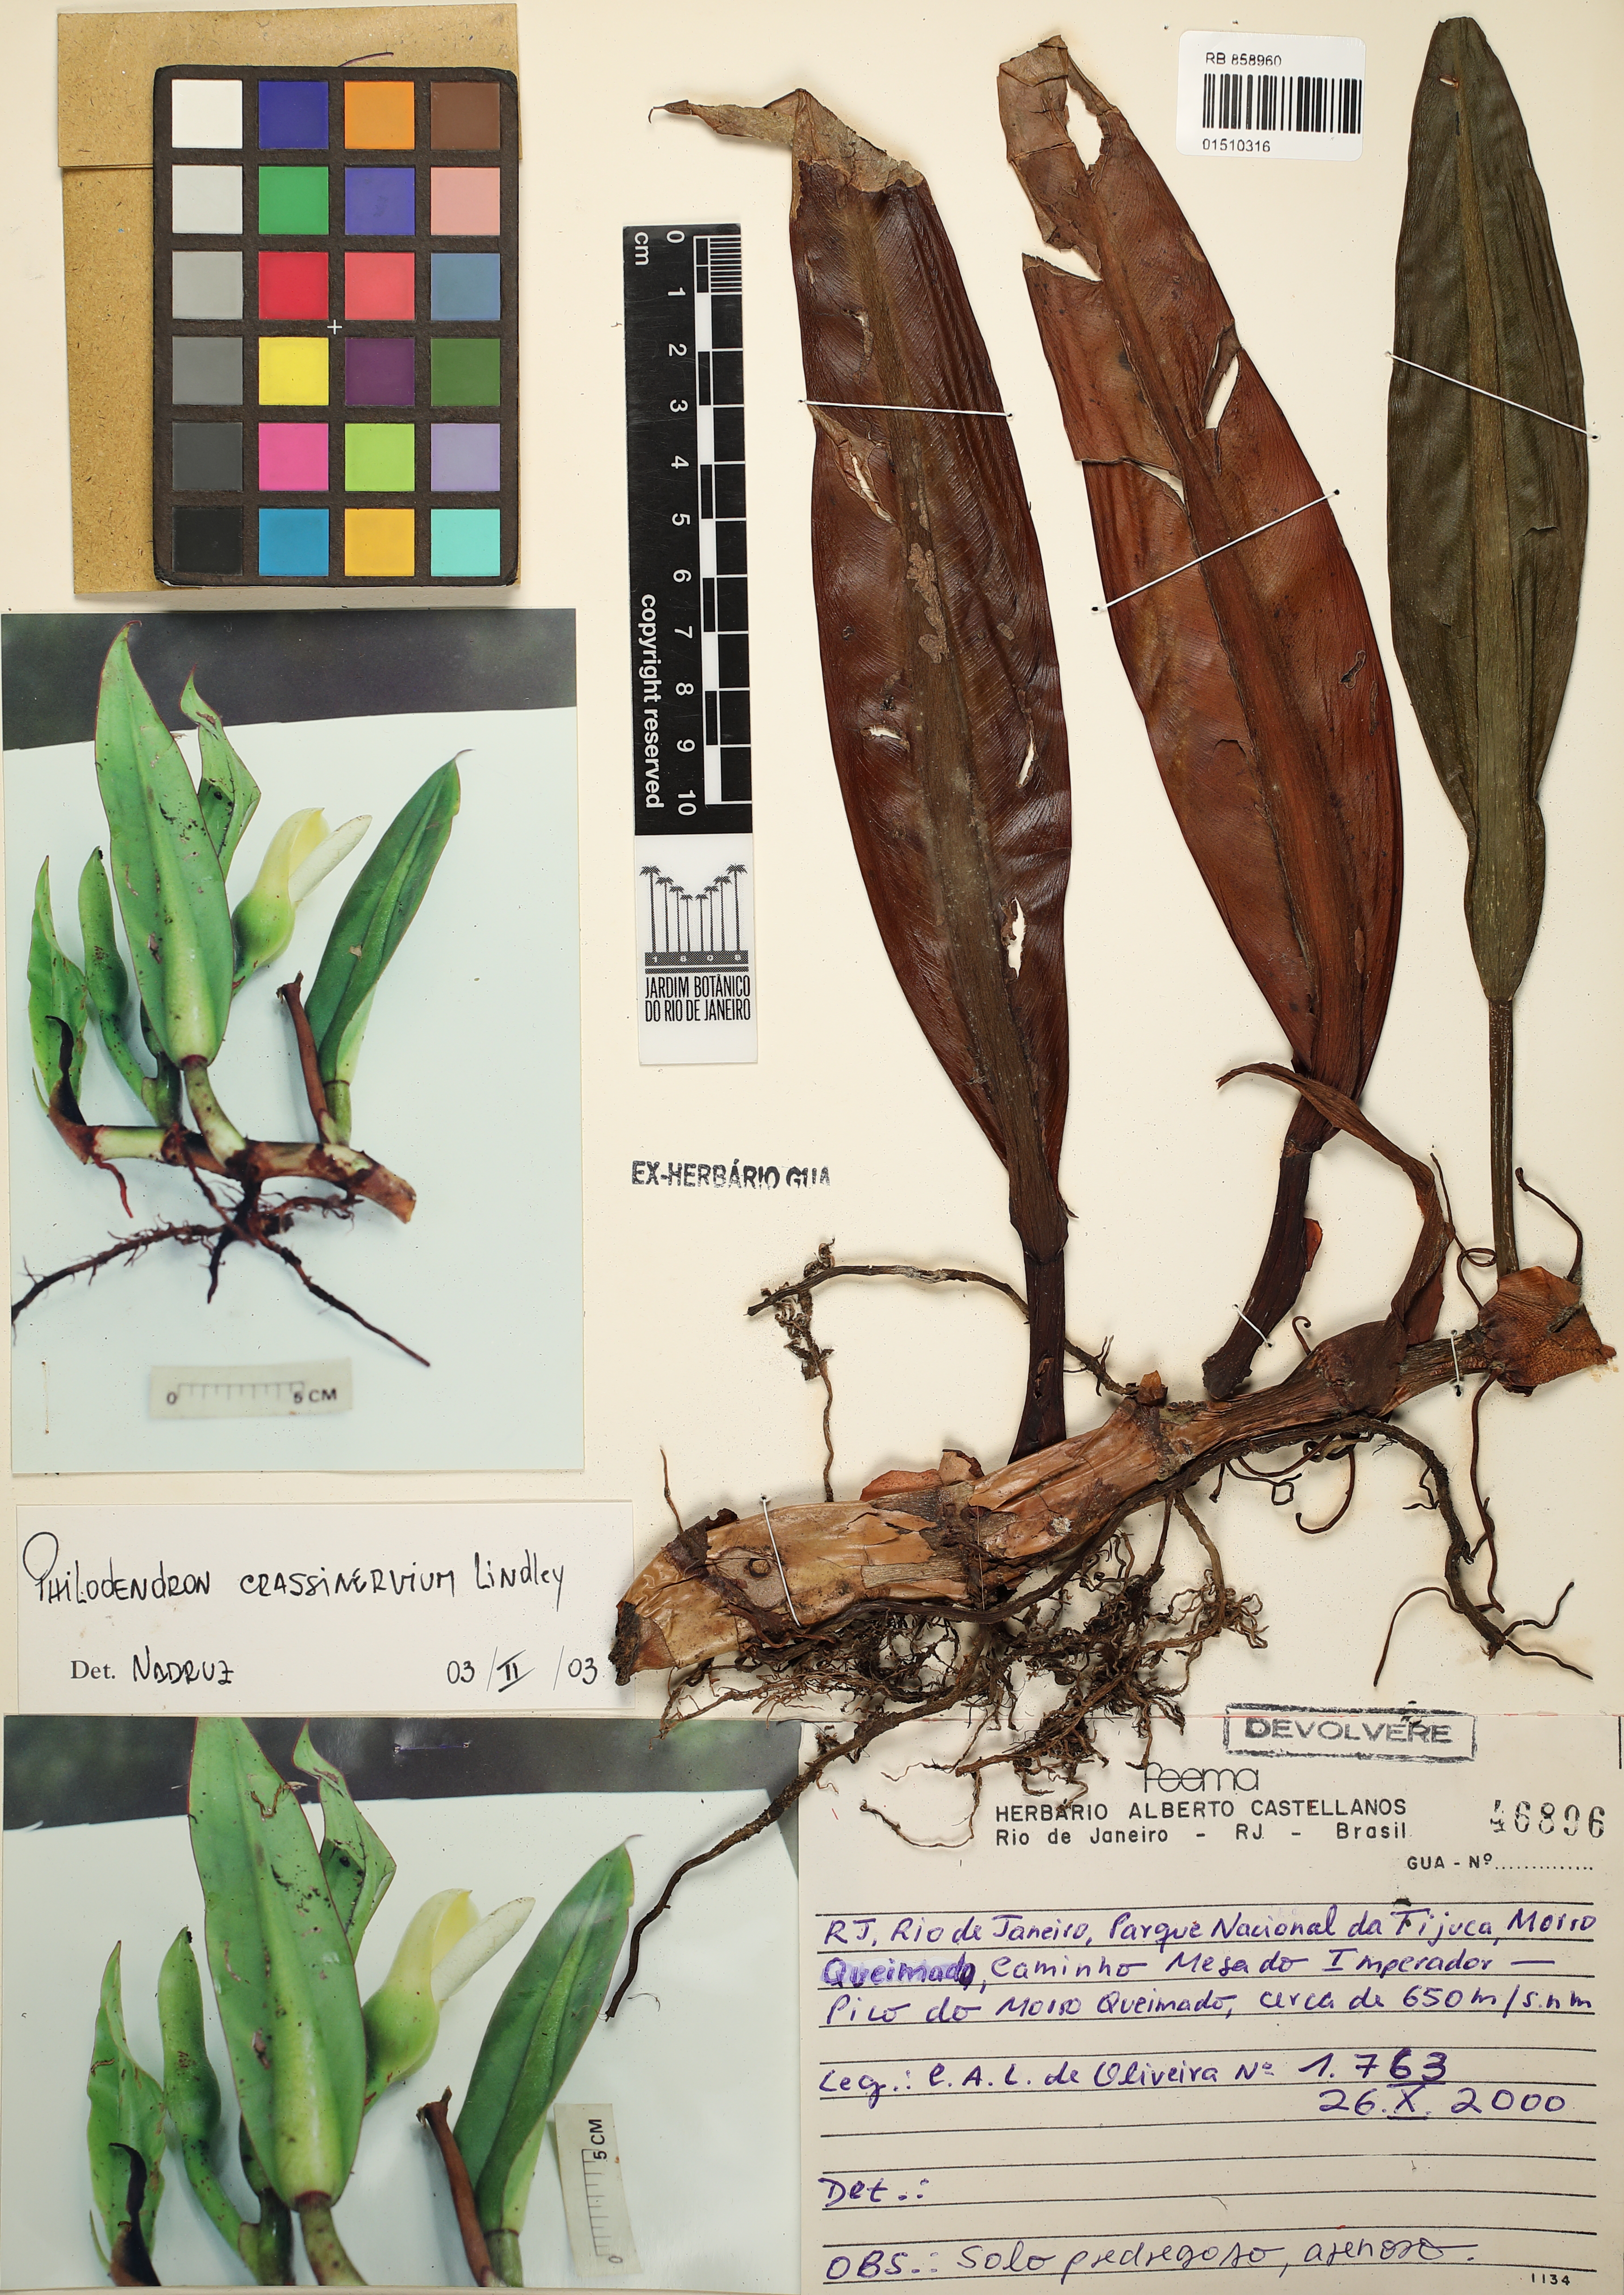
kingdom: Plantae
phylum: Tracheophyta
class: Liliopsida
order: Alismatales
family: Araceae
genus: Philodendron
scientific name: Philodendron crassinervium
